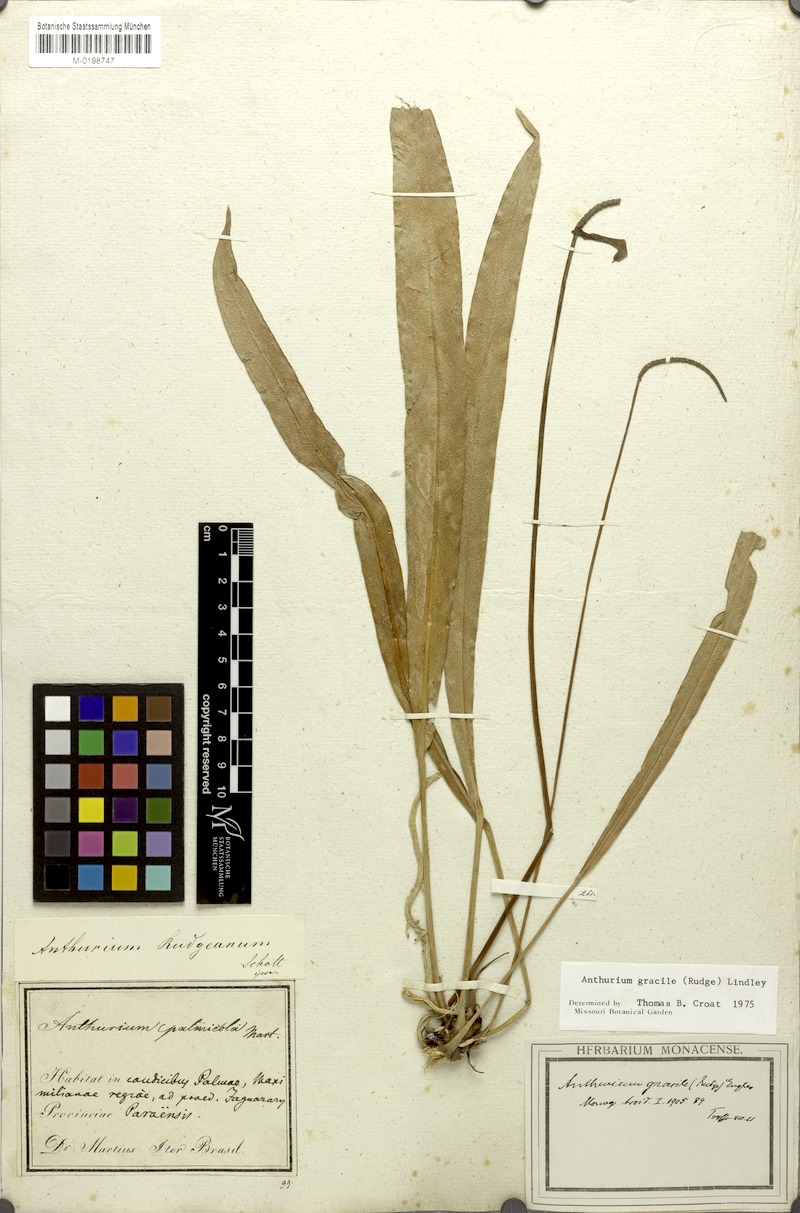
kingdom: Plantae
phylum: Tracheophyta
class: Liliopsida
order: Alismatales
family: Araceae
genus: Anthurium
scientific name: Anthurium gracile
